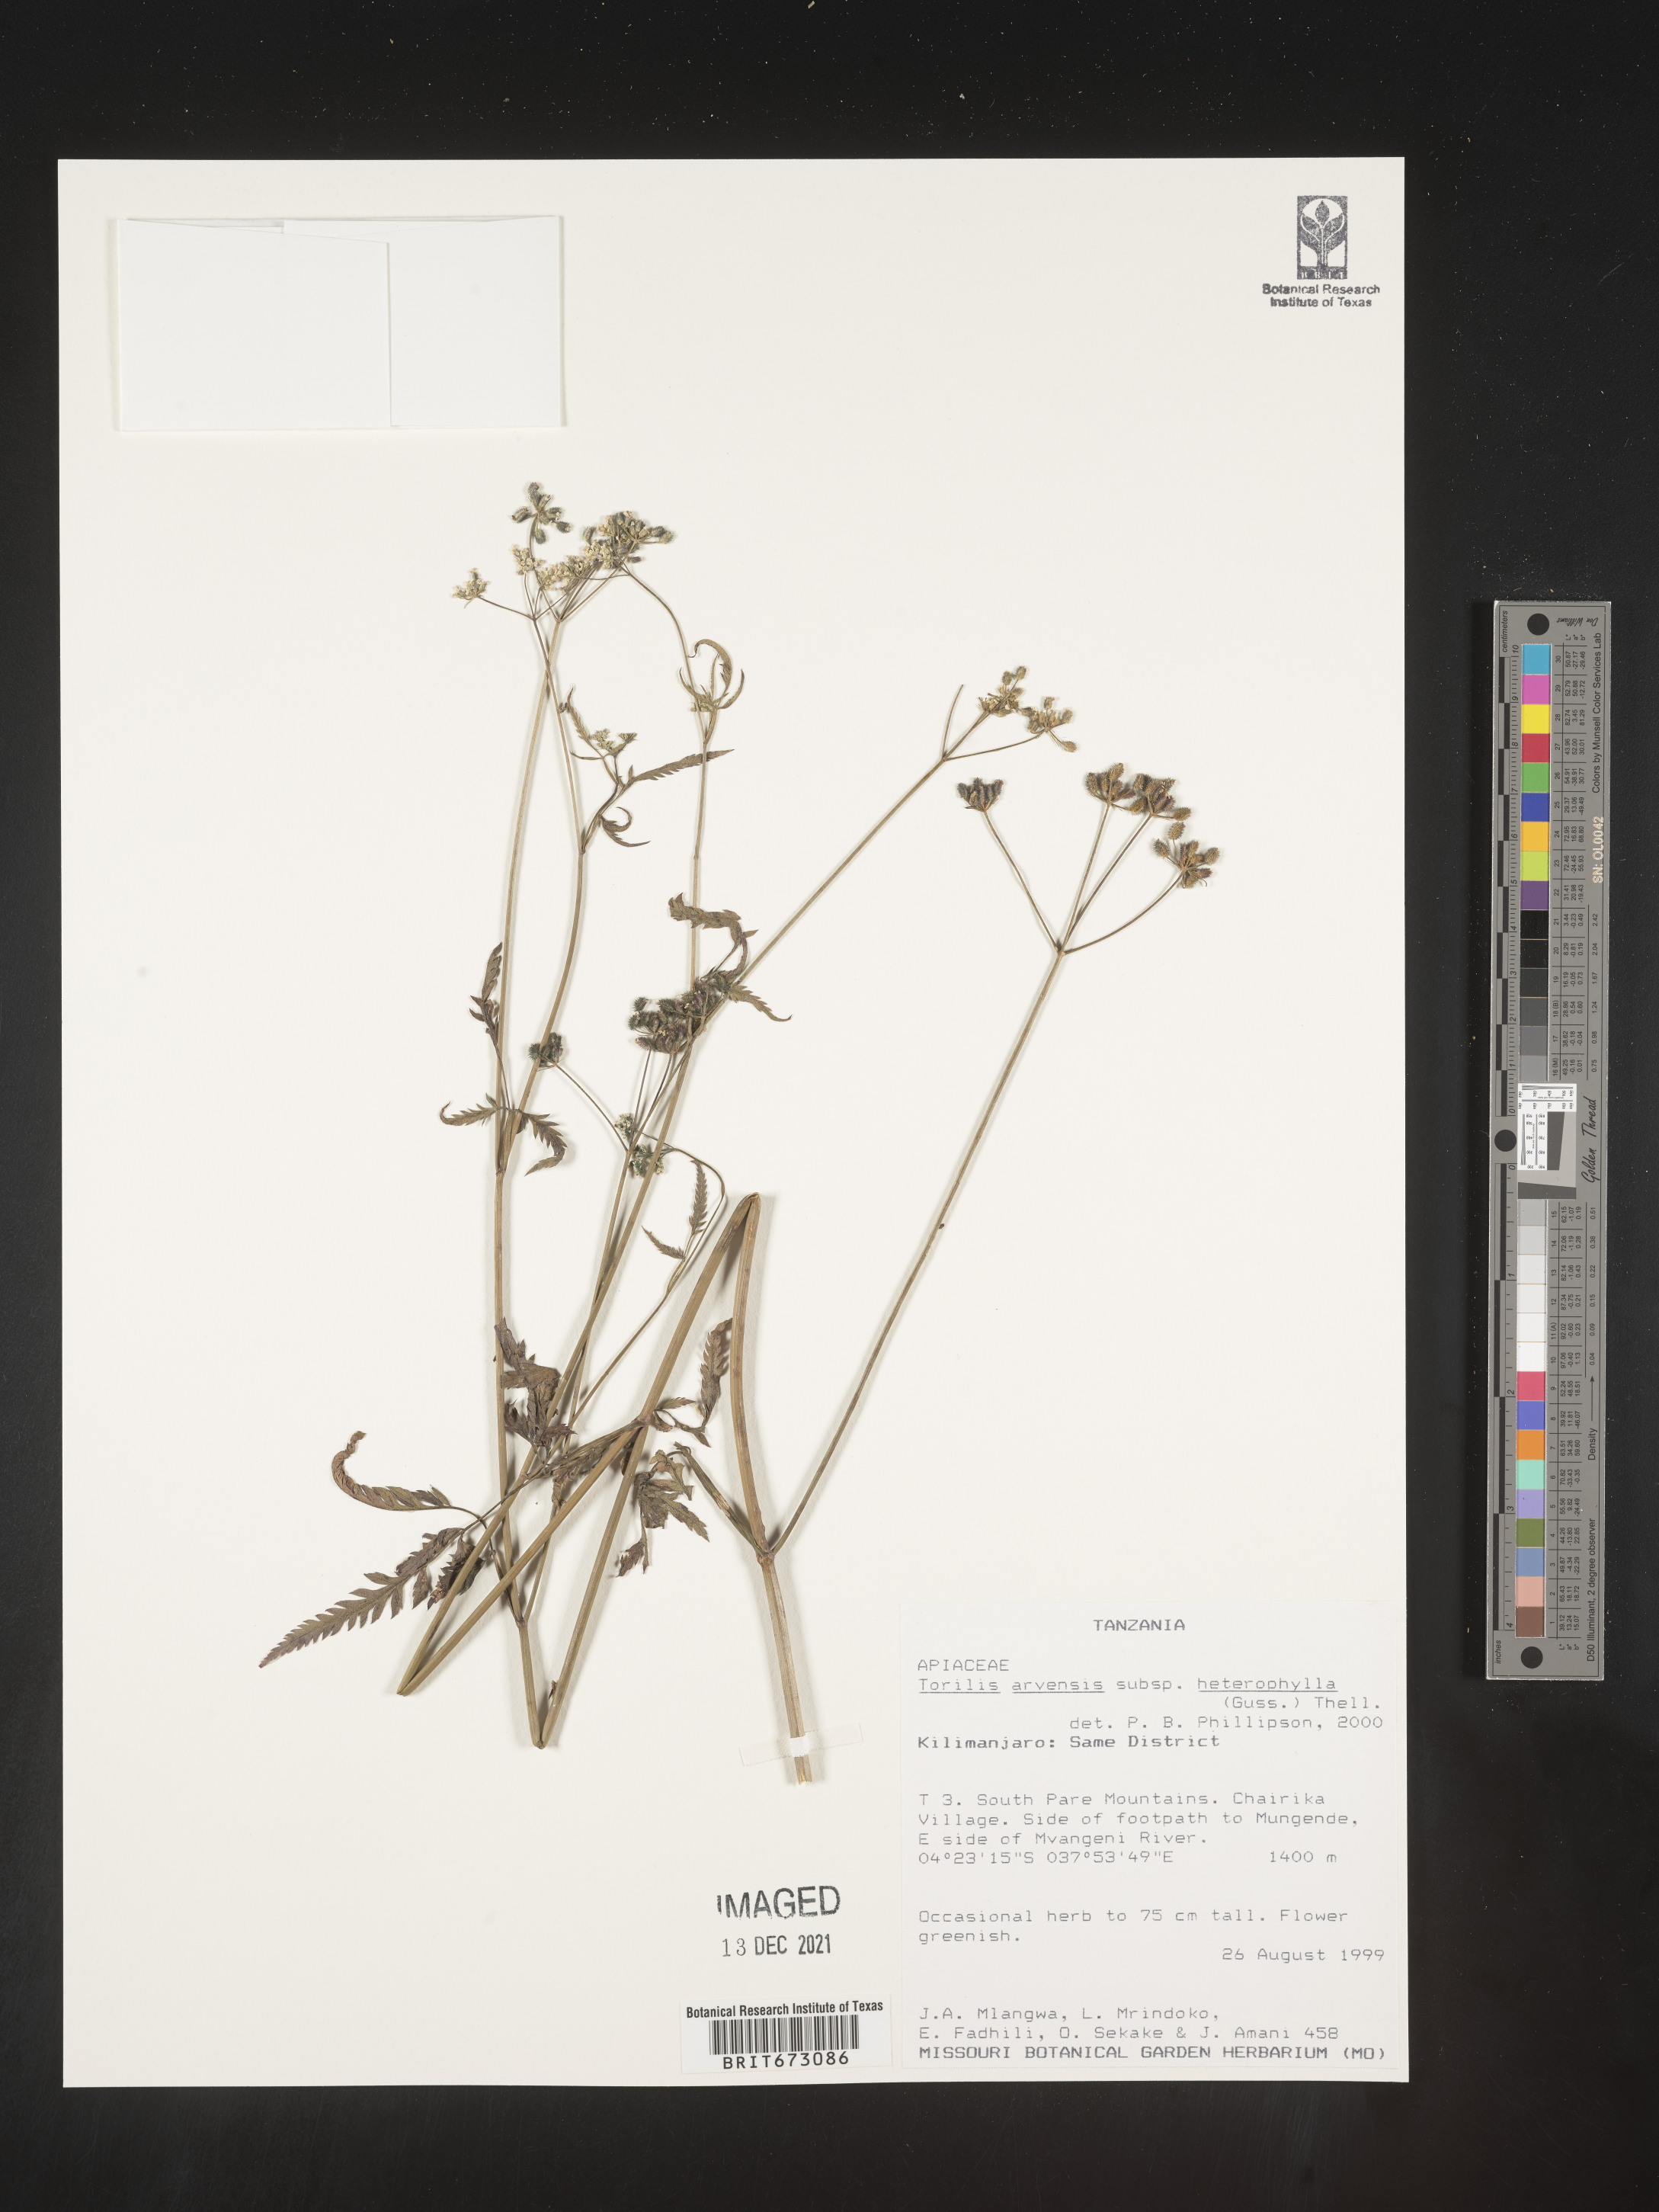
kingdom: Plantae
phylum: Tracheophyta
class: Magnoliopsida
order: Apiales
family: Apiaceae
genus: Torilis
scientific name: Torilis
